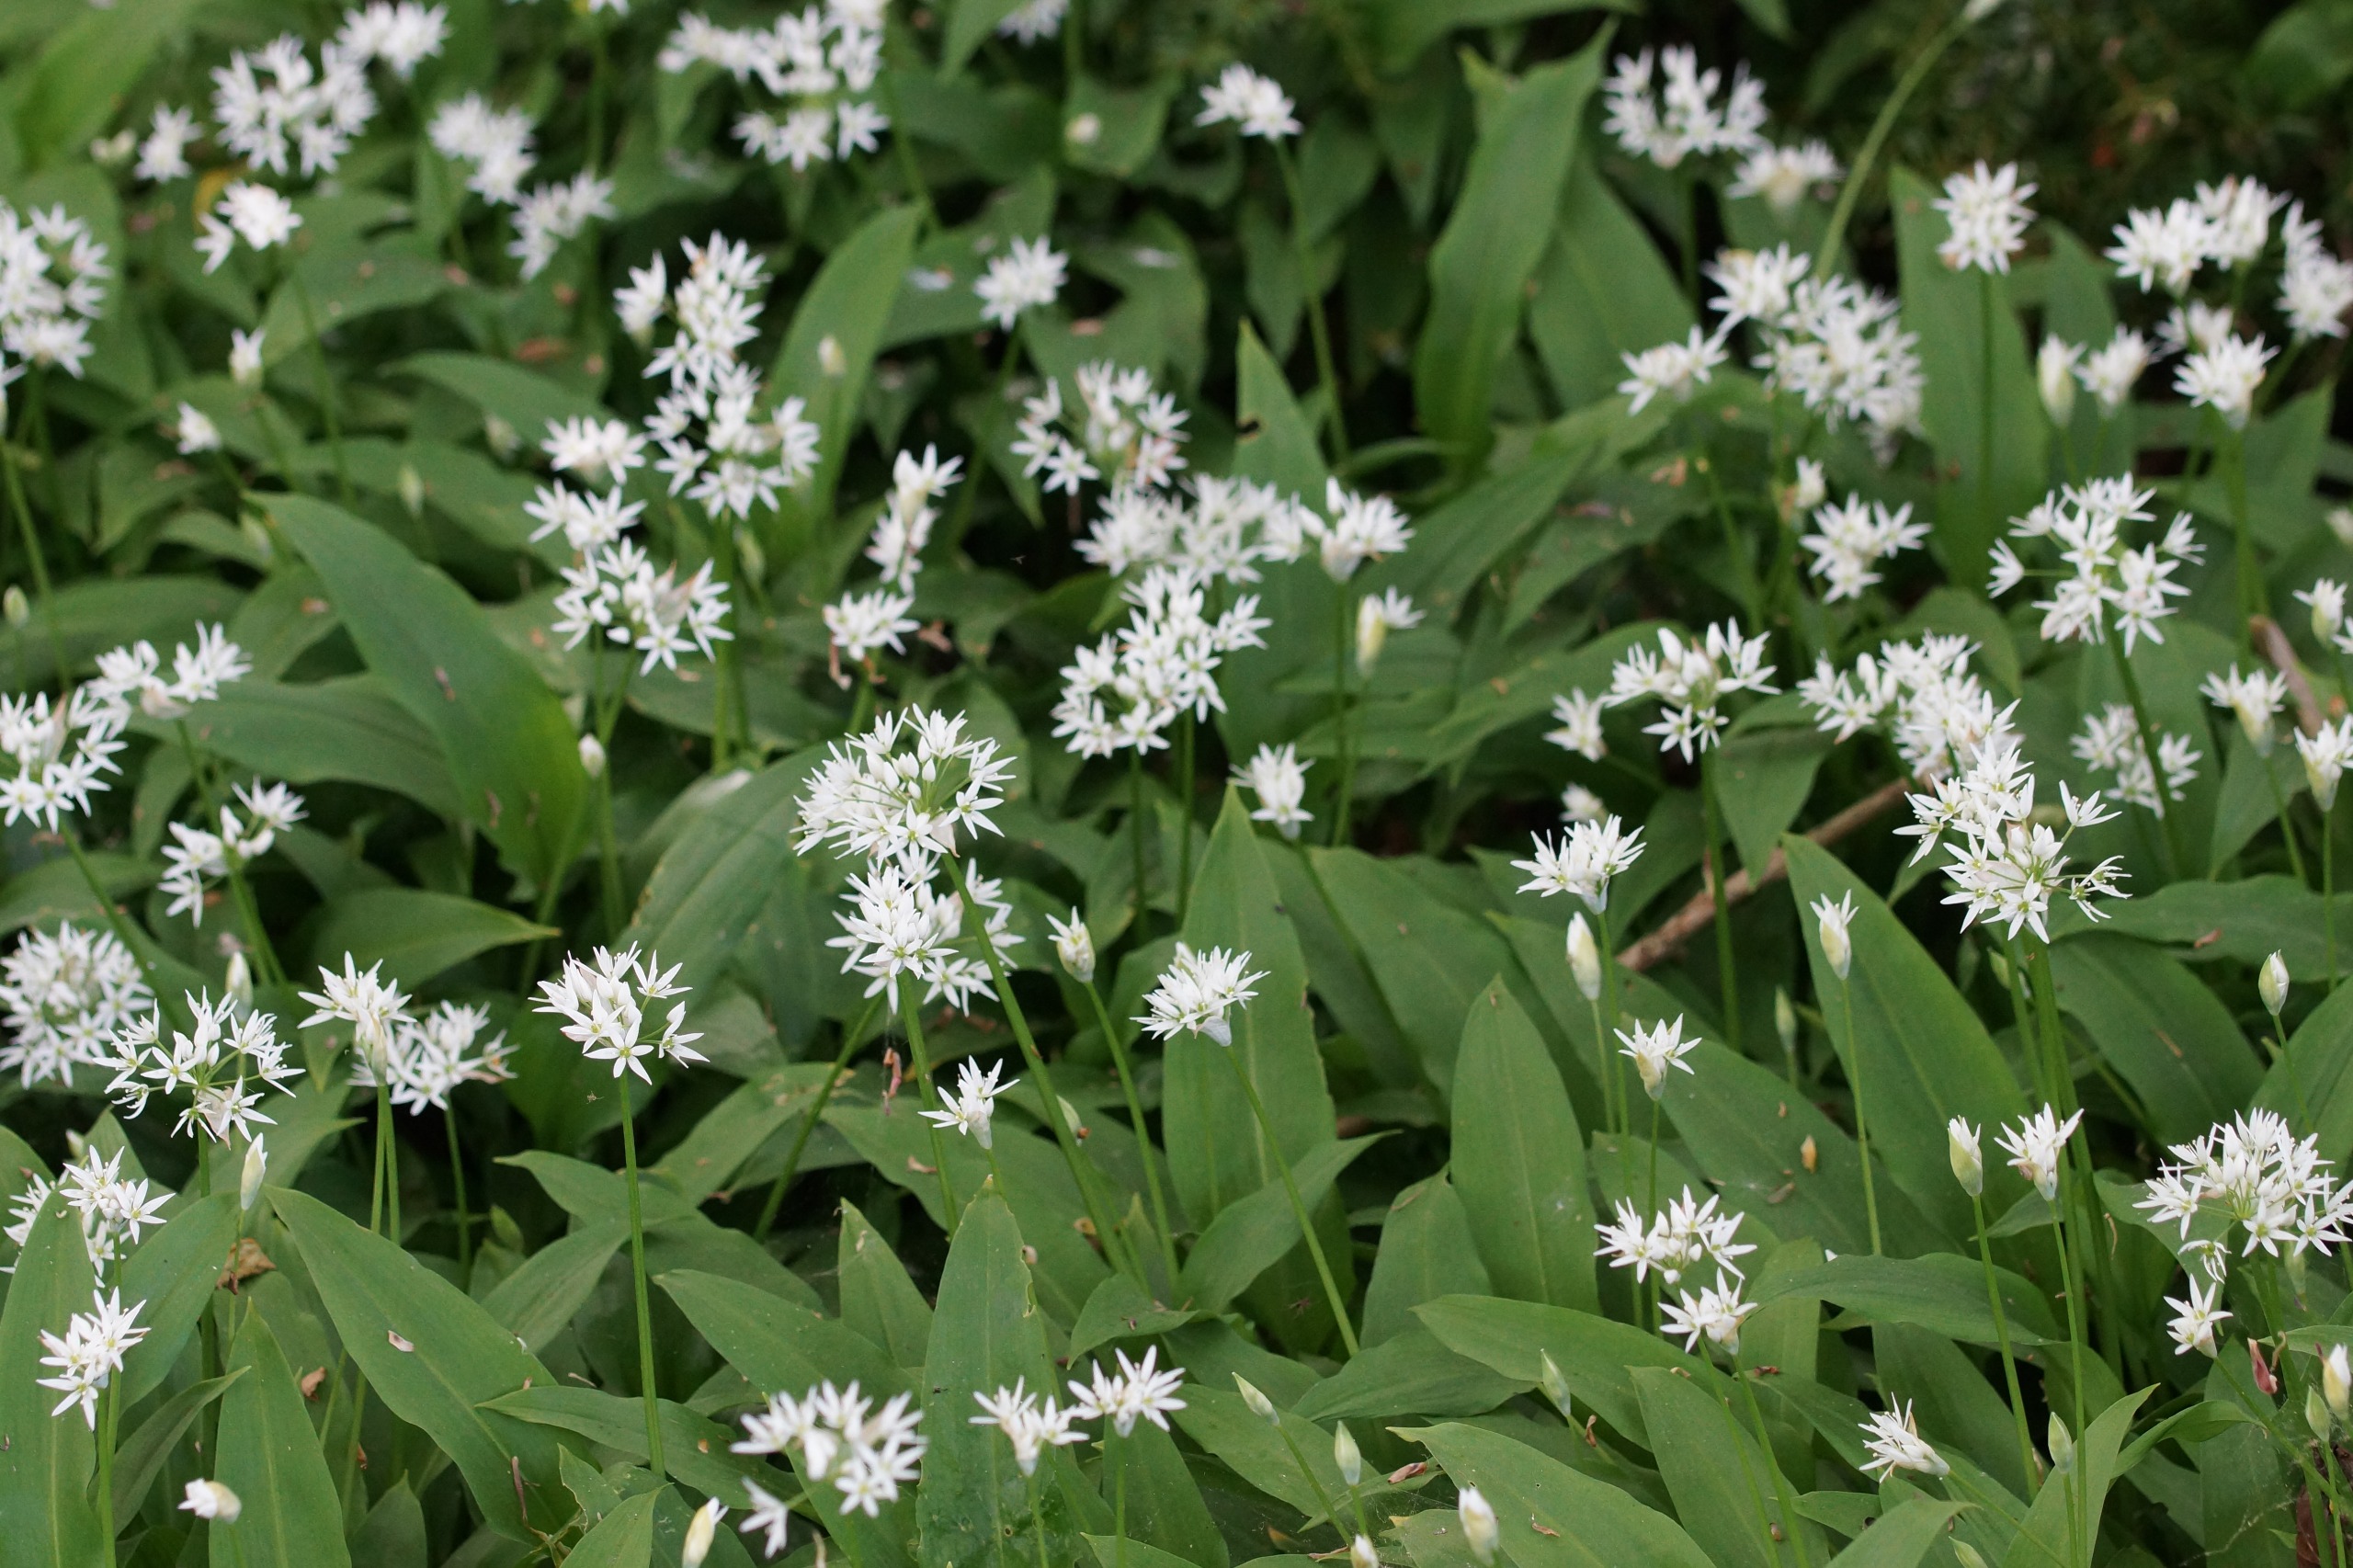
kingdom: Plantae
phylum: Tracheophyta
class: Liliopsida
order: Asparagales
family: Amaryllidaceae
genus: Allium
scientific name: Allium ursinum
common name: Rams-løg
